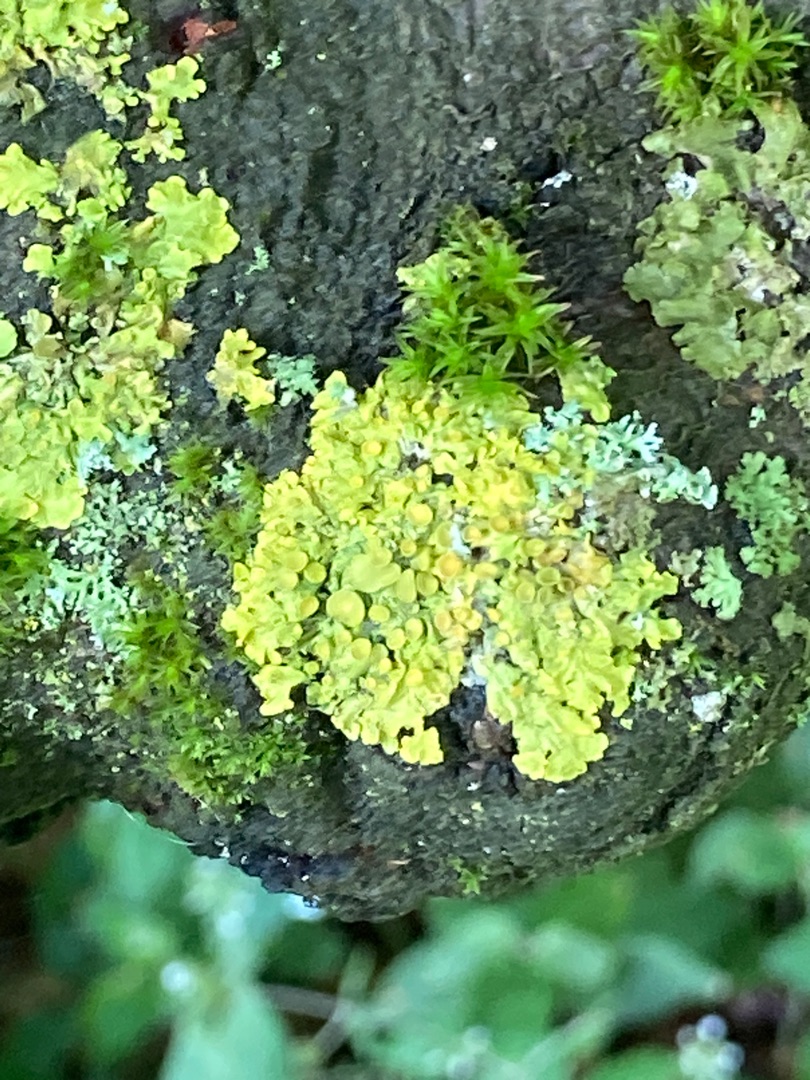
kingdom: Fungi
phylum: Ascomycota
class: Lecanoromycetes
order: Teloschistales
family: Teloschistaceae
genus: Xanthoria
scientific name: Xanthoria parietina
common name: Almindelig væggelav
